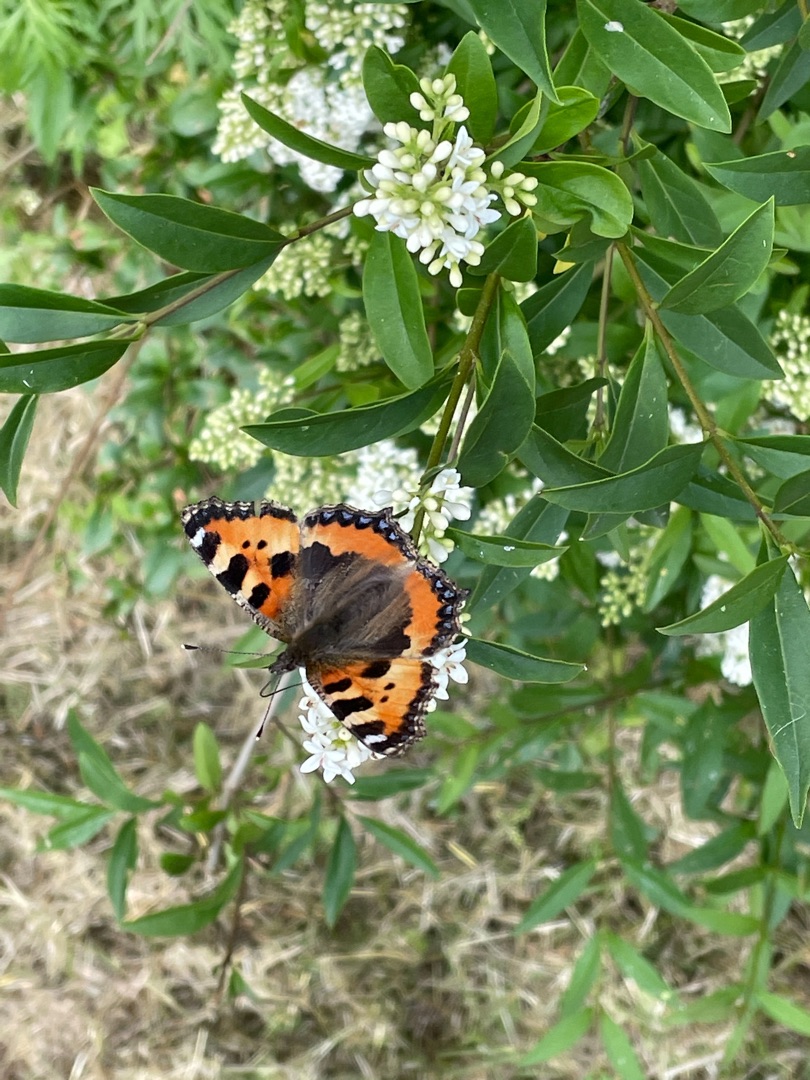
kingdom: Animalia
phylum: Arthropoda
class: Insecta
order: Lepidoptera
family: Nymphalidae
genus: Aglais
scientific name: Aglais urticae
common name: Nældens takvinge
